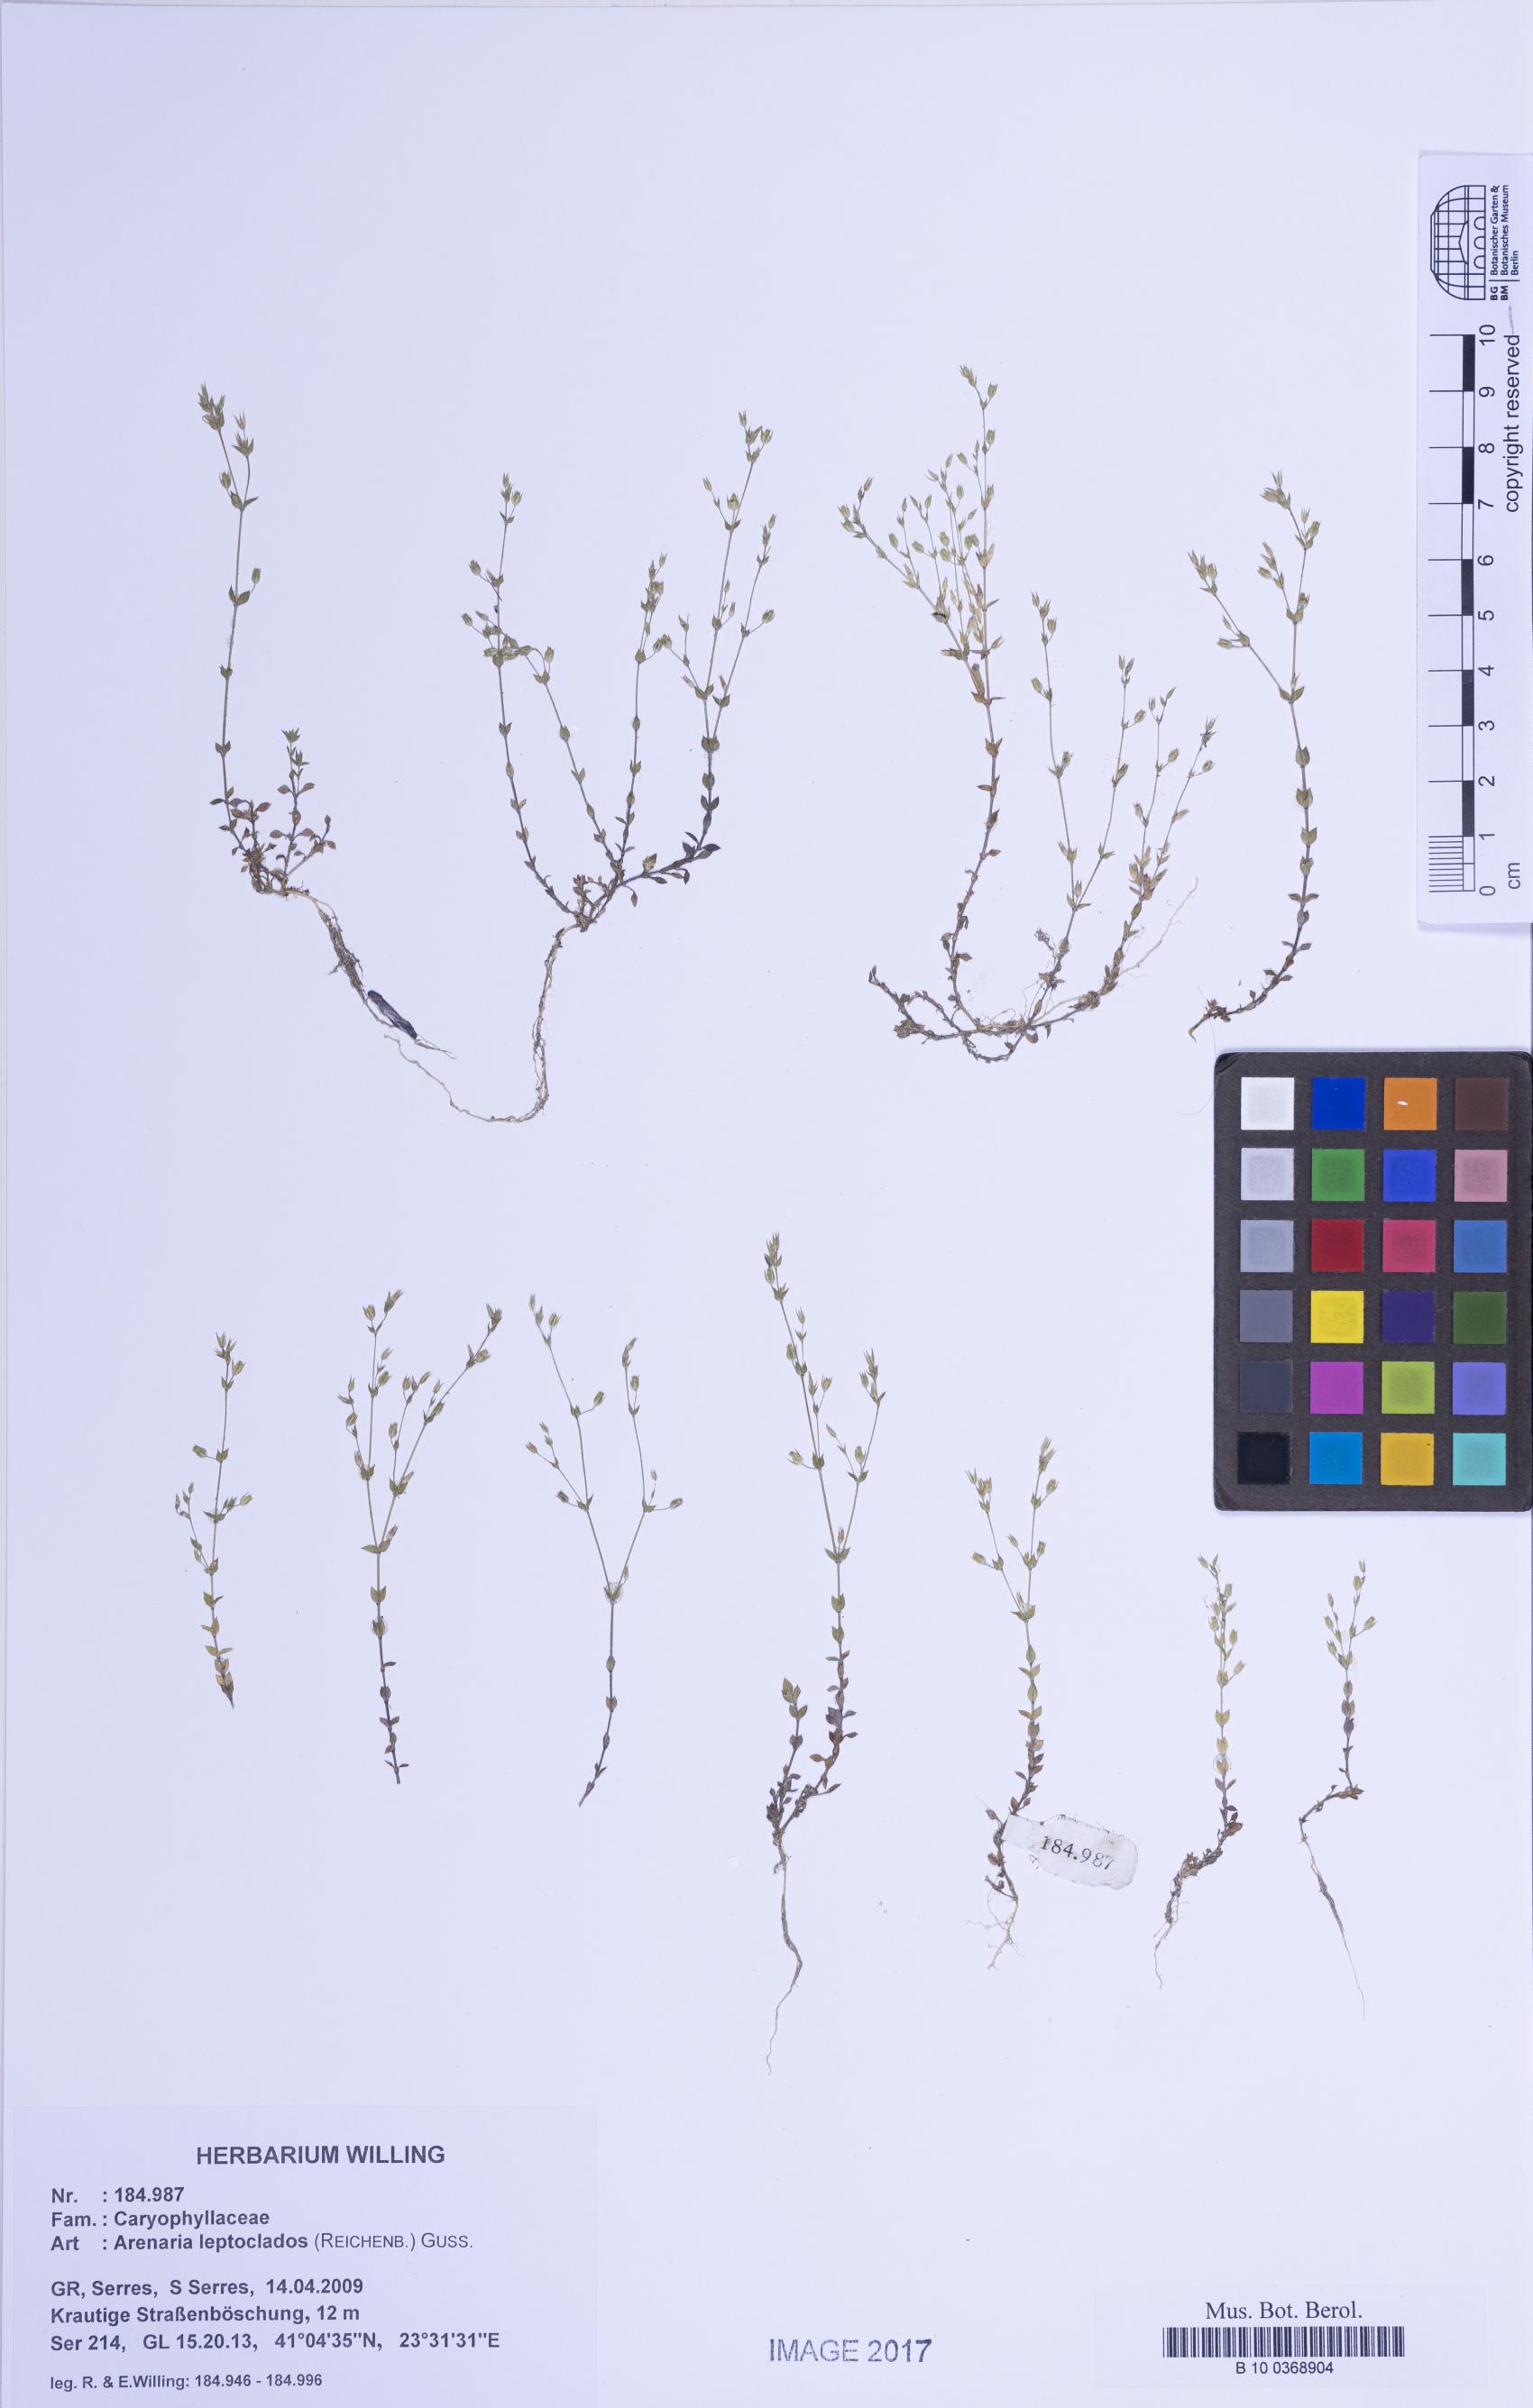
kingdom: Plantae
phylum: Tracheophyta
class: Magnoliopsida
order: Caryophyllales
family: Caryophyllaceae
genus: Arenaria
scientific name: Arenaria leptoclados
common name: Thyme-leaved sandwort
